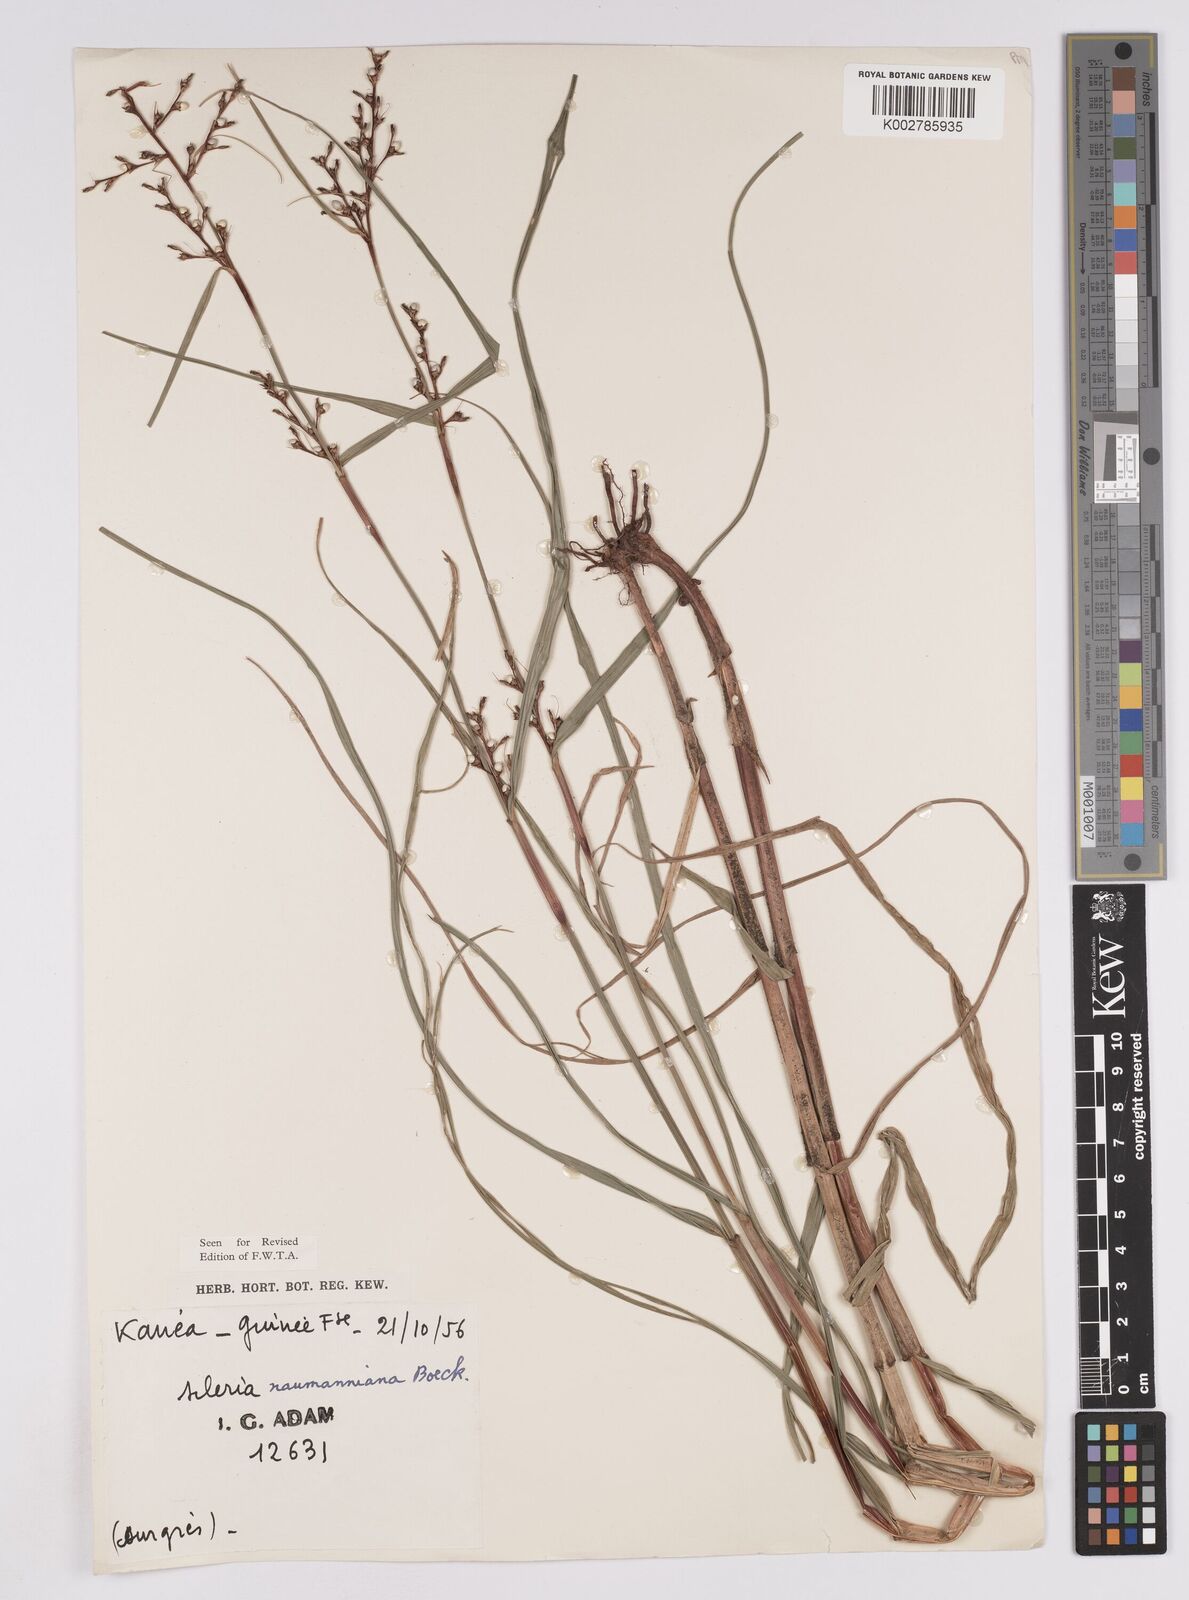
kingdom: Plantae
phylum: Tracheophyta
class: Liliopsida
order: Poales
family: Cyperaceae
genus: Scleria
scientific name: Scleria naumanniana
